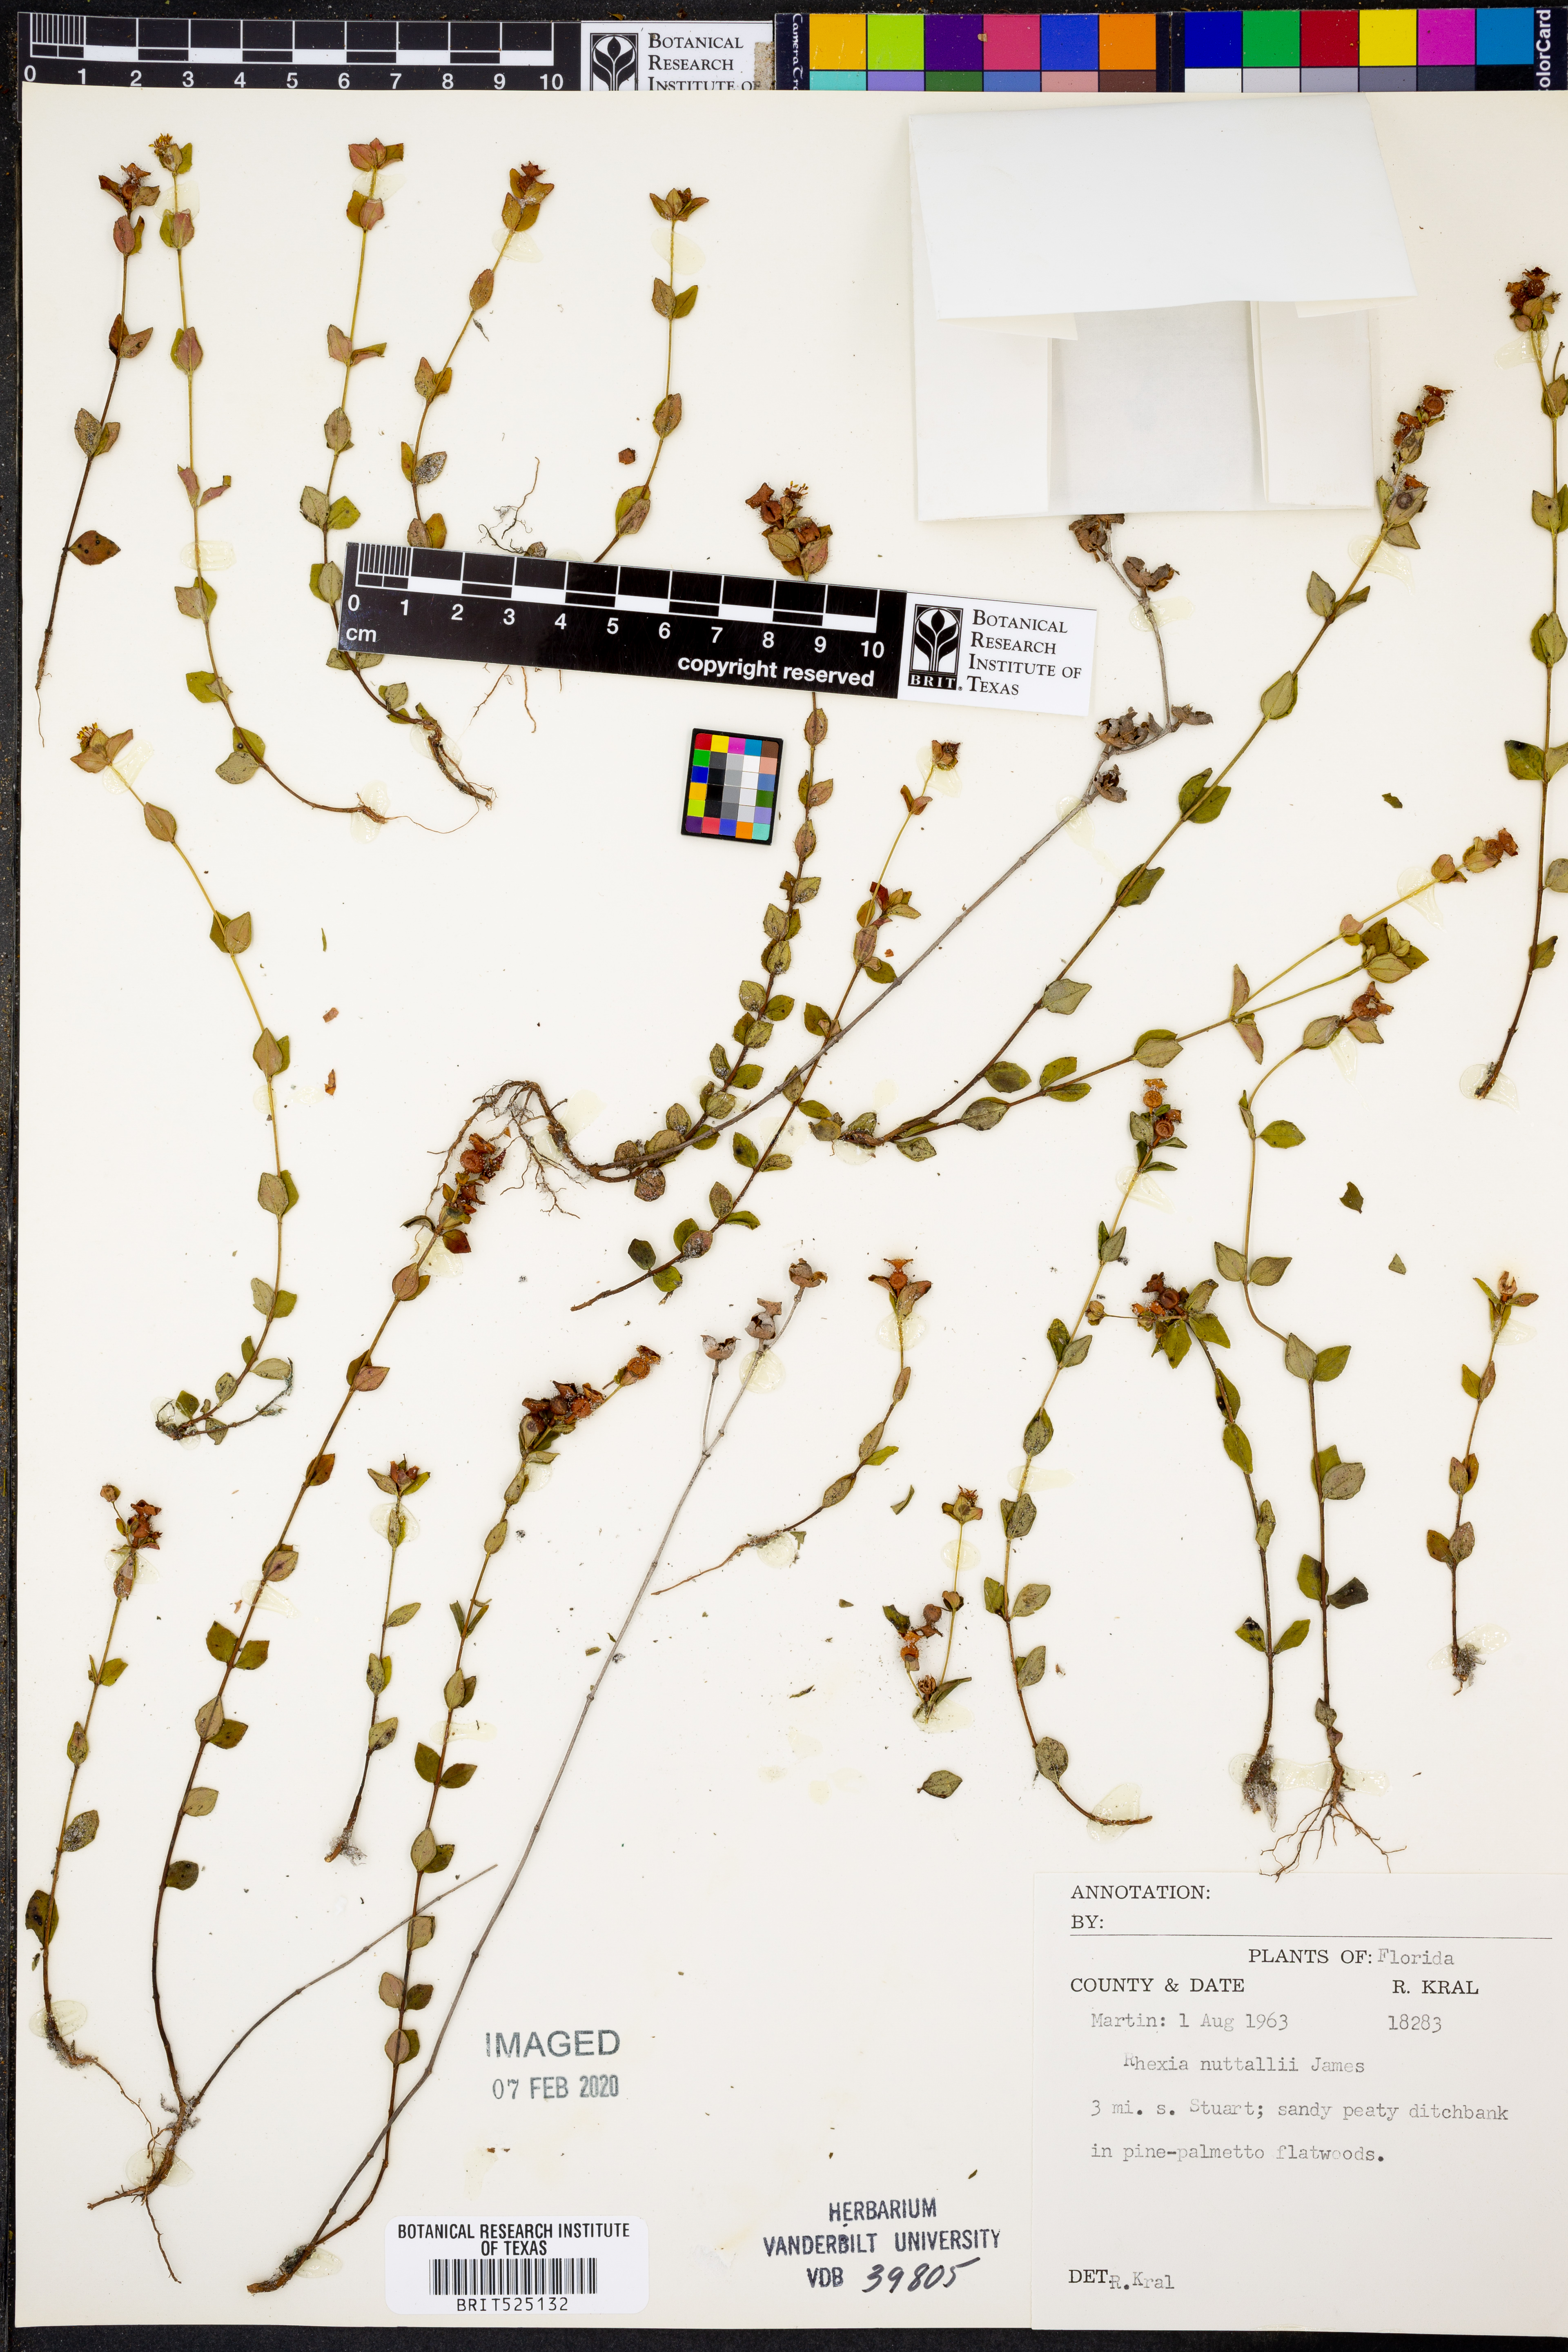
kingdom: Plantae
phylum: Tracheophyta
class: Magnoliopsida
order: Myrtales
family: Melastomataceae
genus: Rhexia
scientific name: Rhexia nuttallii
